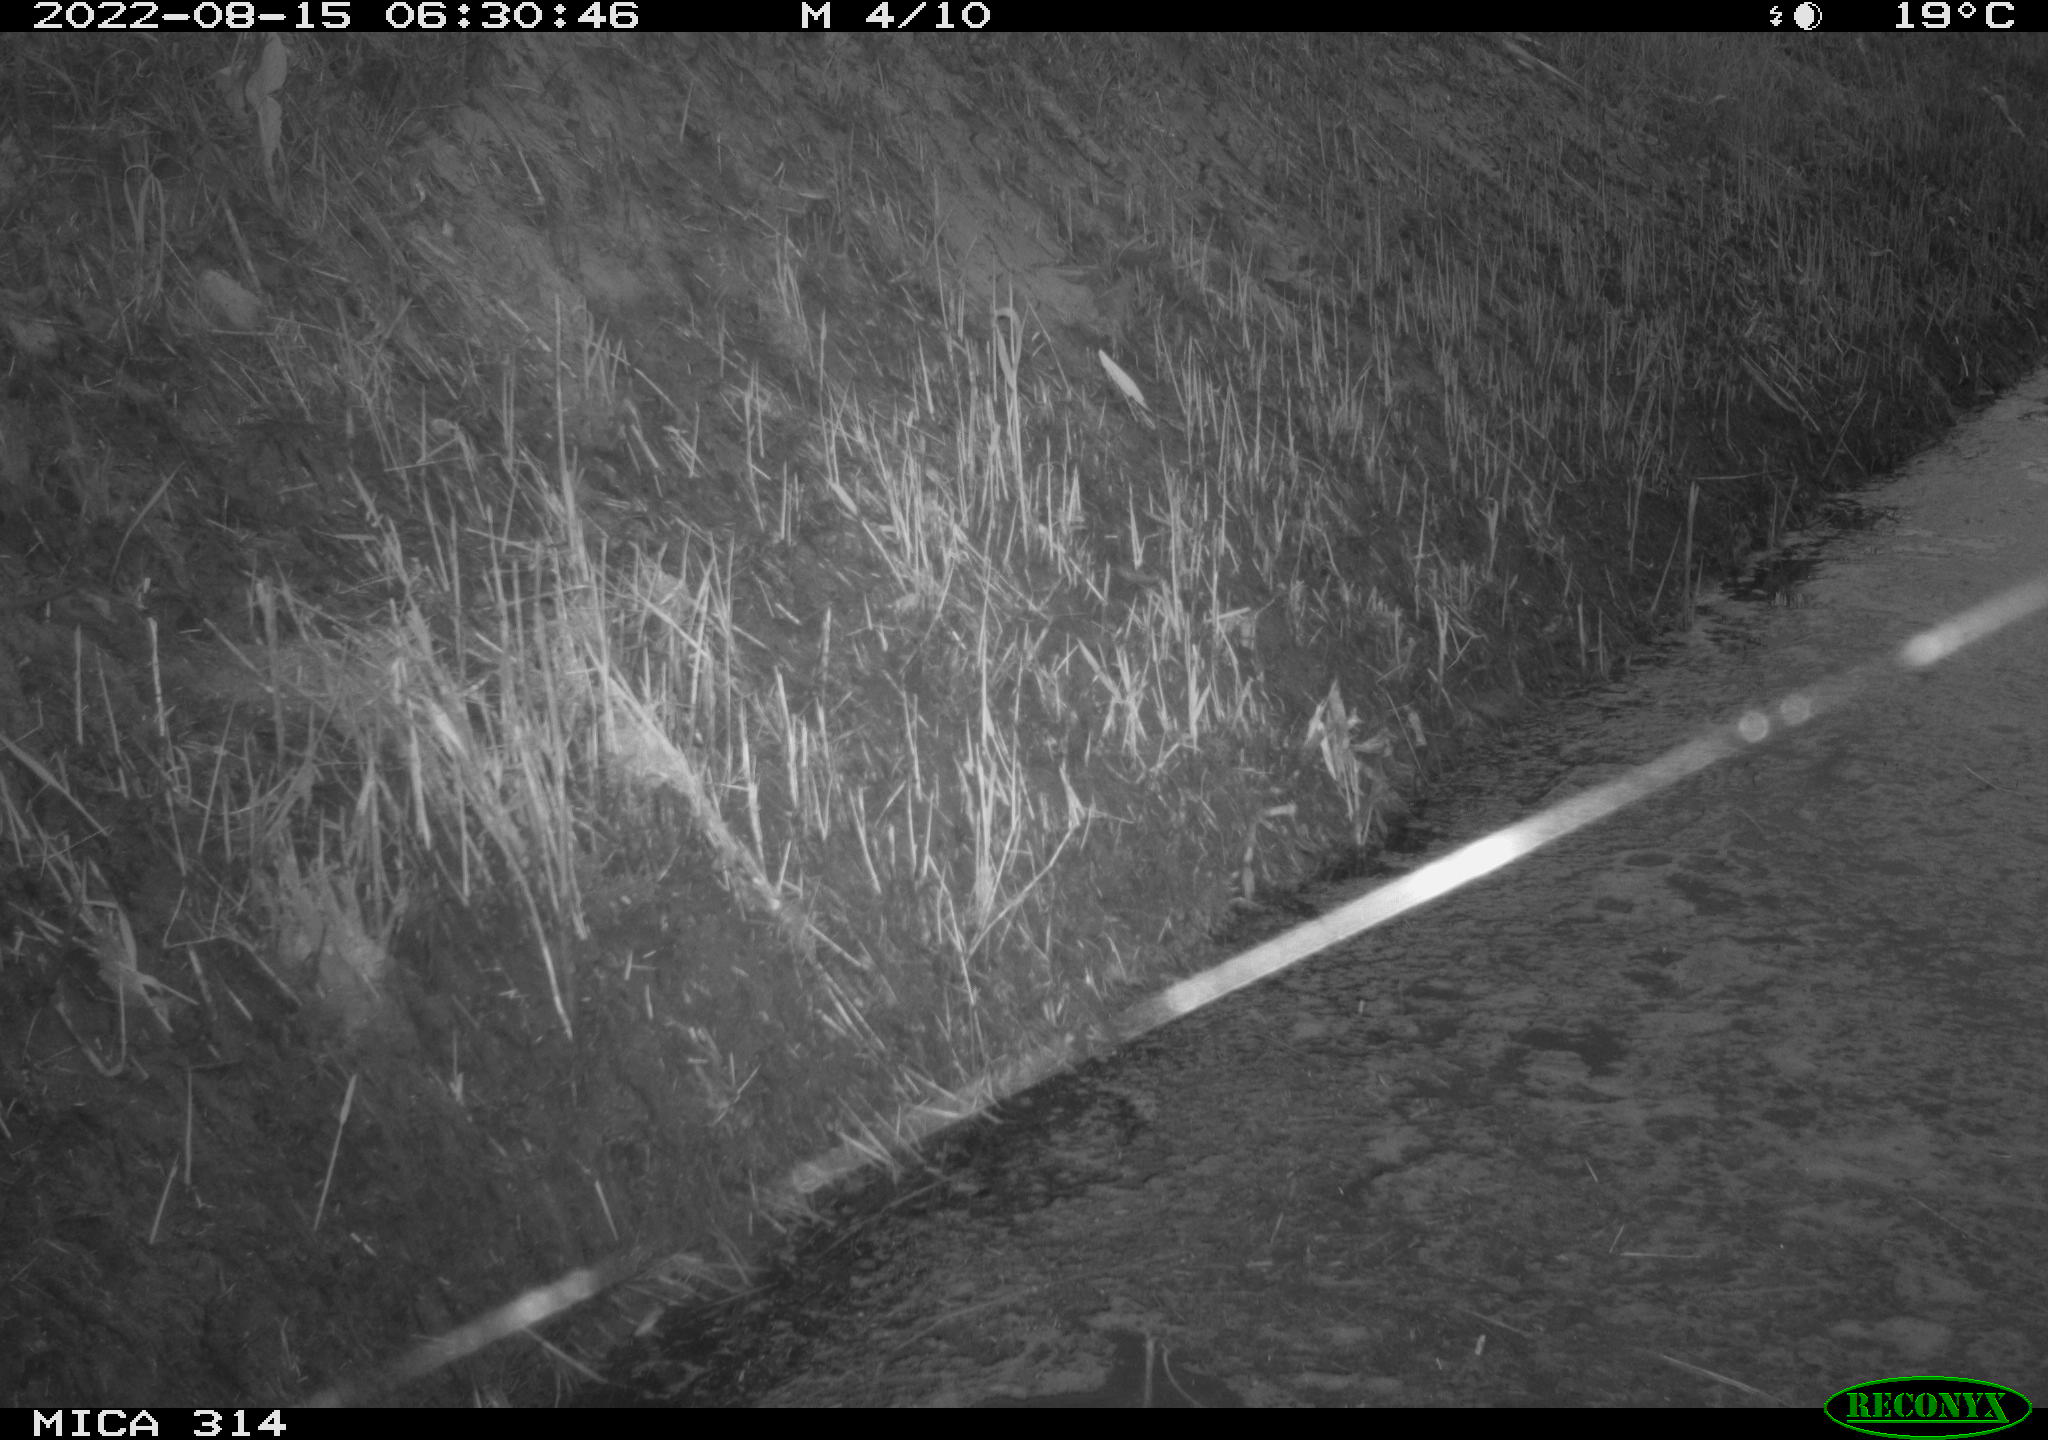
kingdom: Animalia
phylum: Chordata
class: Mammalia
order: Rodentia
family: Muridae
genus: Rattus
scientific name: Rattus norvegicus
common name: Brown rat
